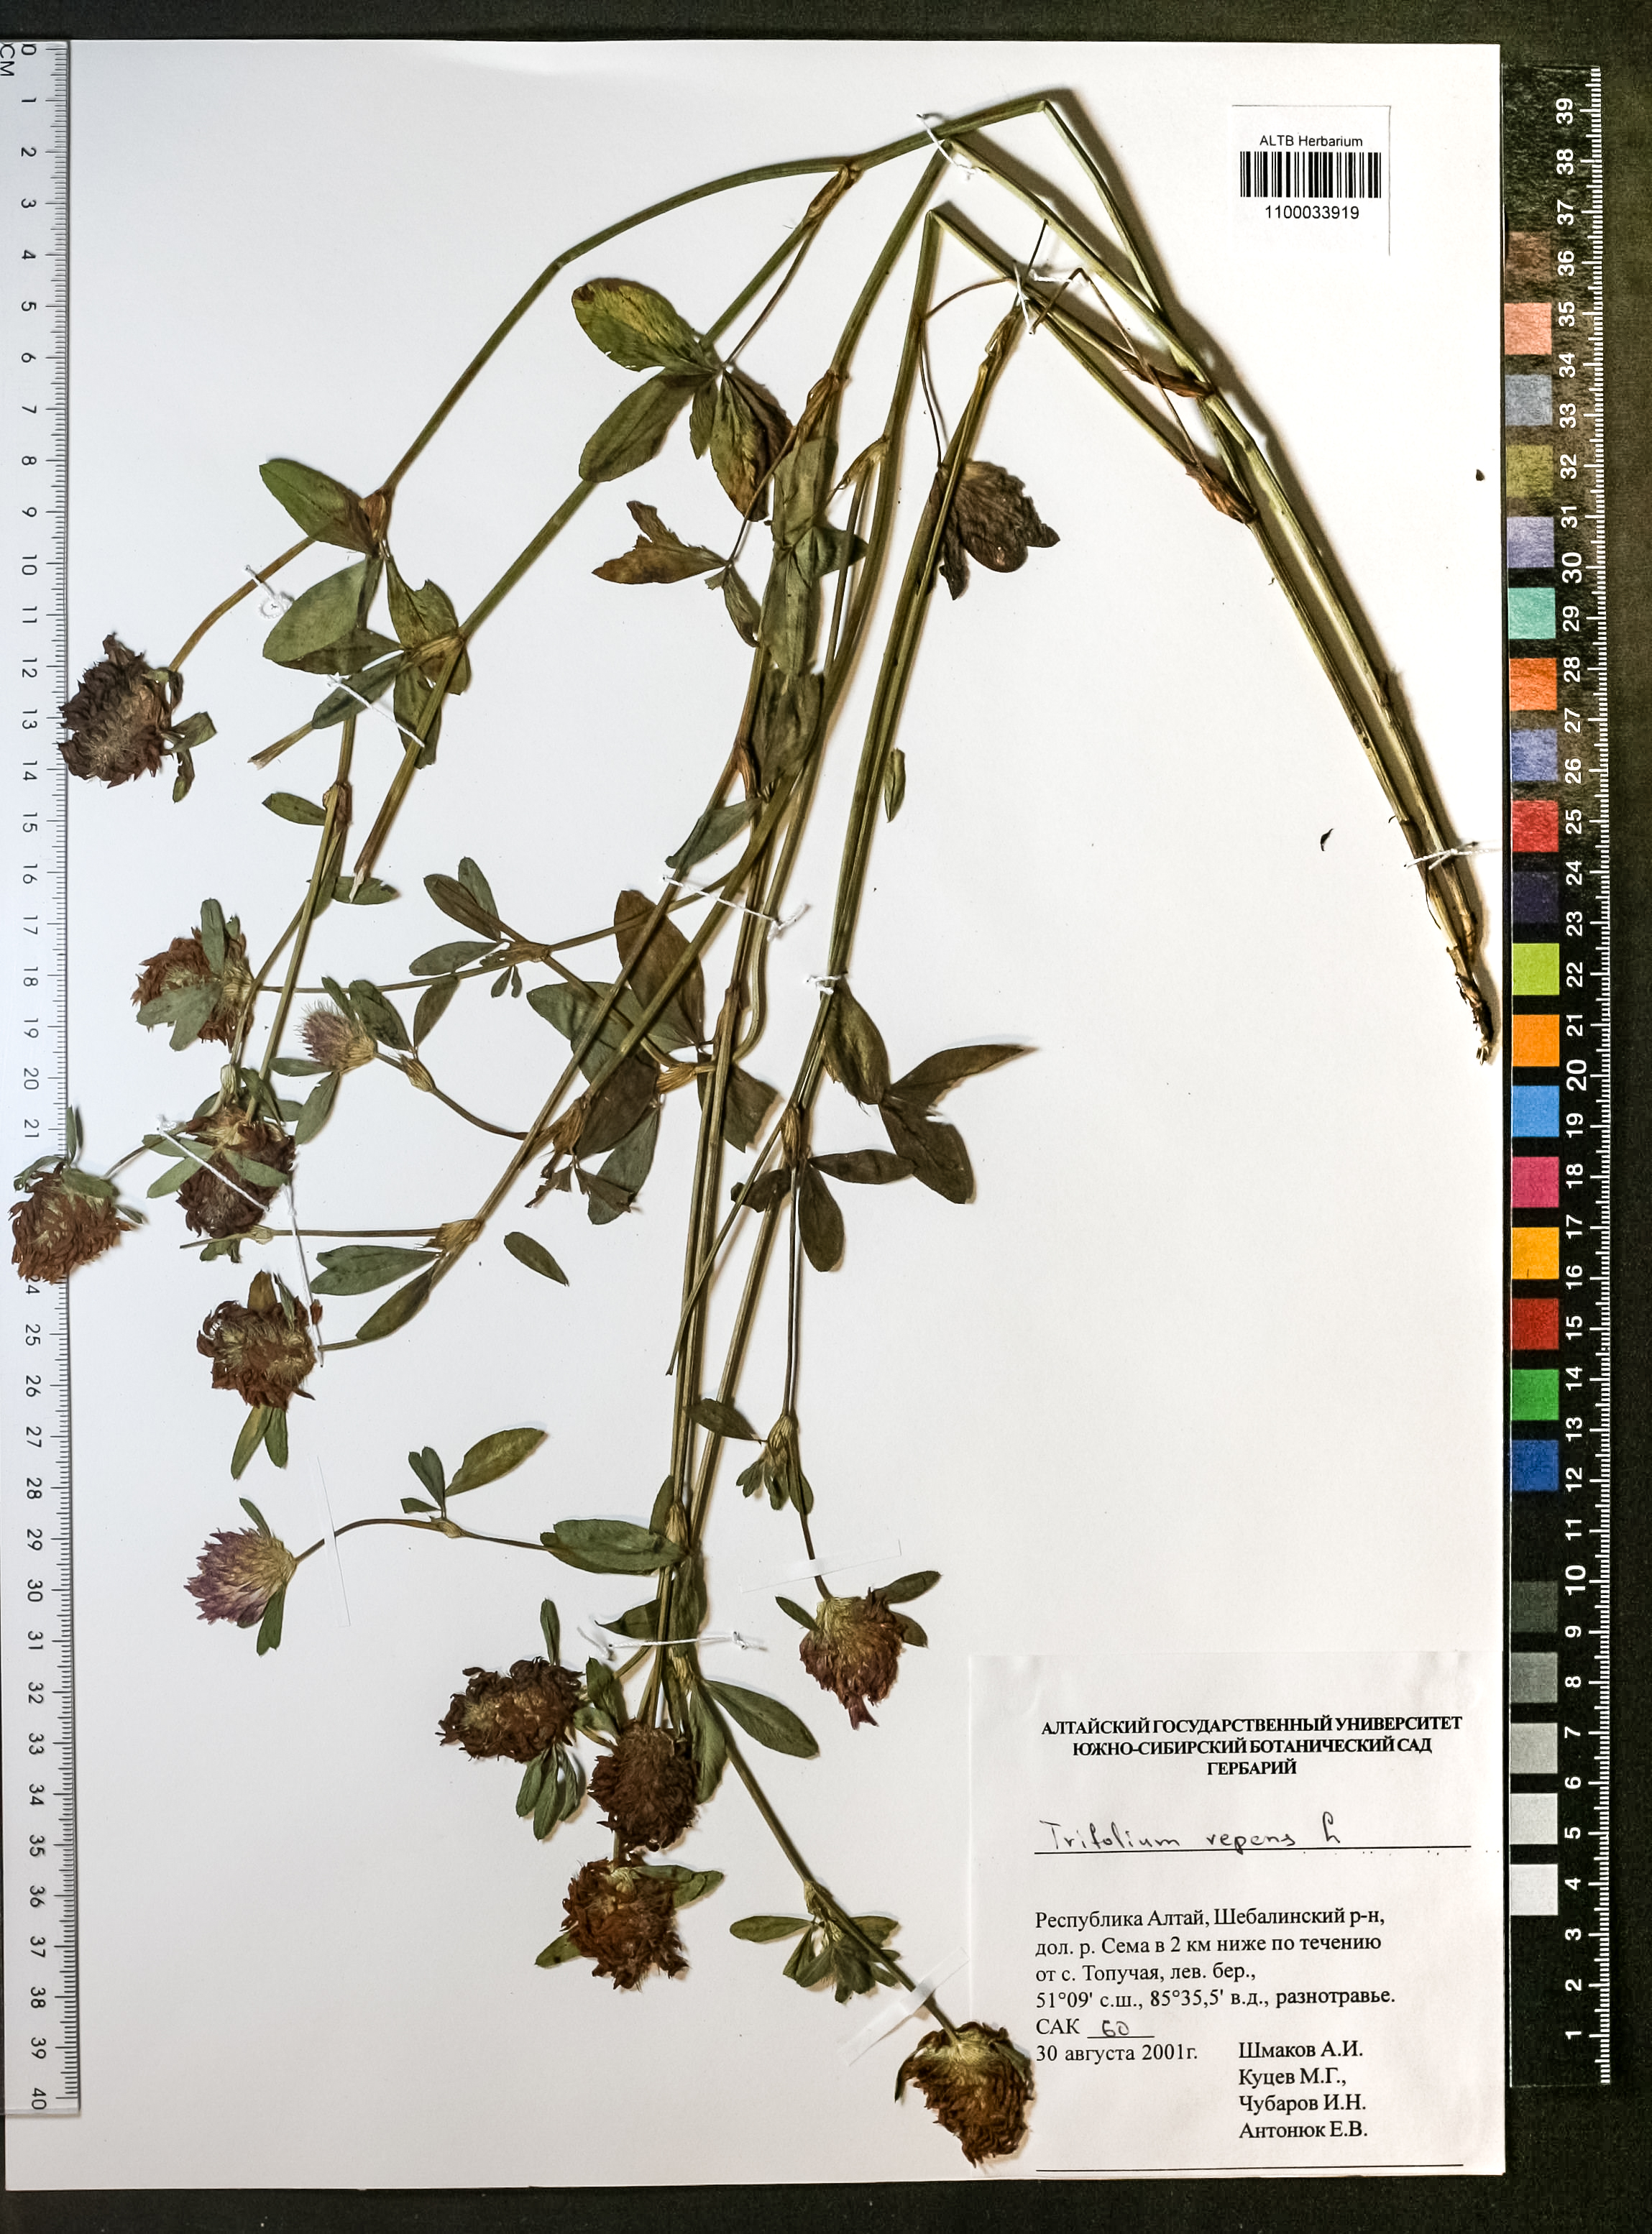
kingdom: Plantae
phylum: Tracheophyta
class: Magnoliopsida
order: Fabales
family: Fabaceae
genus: Trifolium
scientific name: Trifolium repens
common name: White clover
